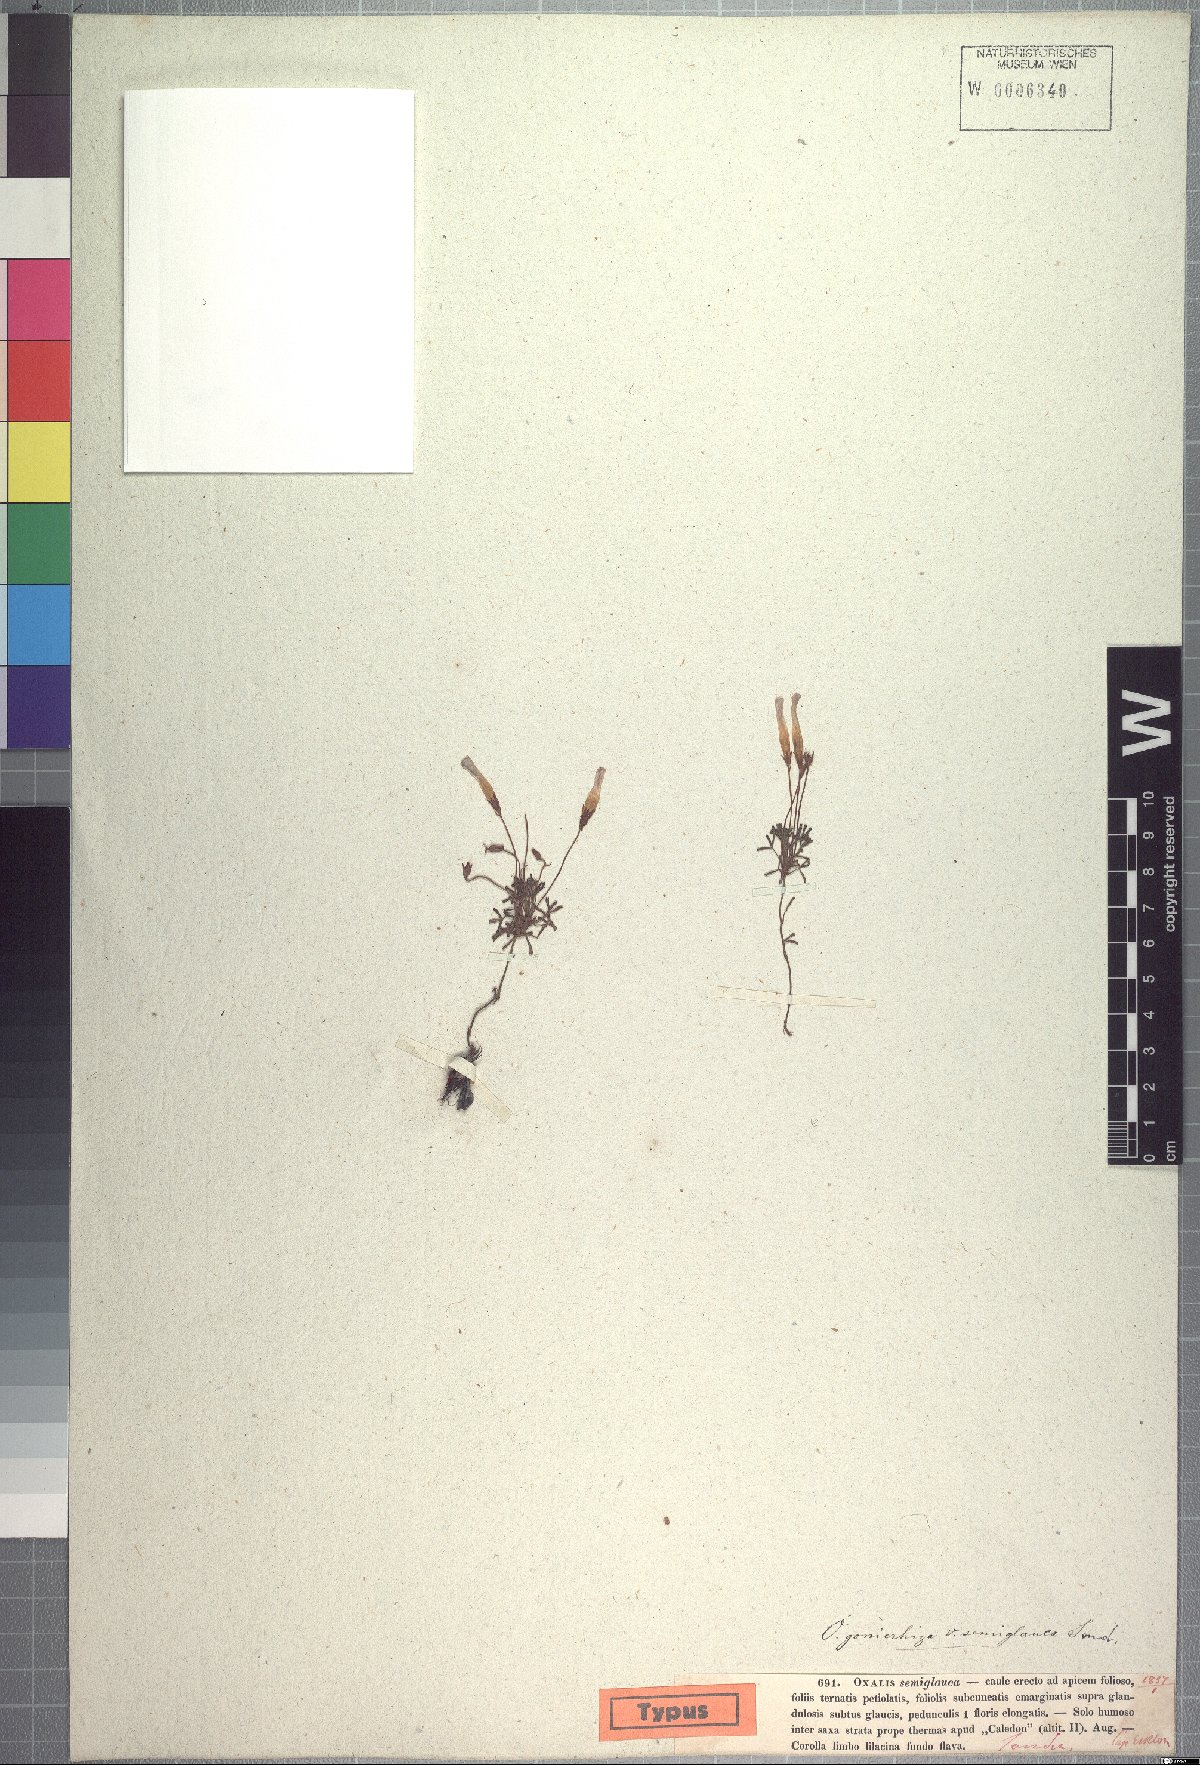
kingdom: Plantae
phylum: Tracheophyta
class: Magnoliopsida
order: Oxalidales
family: Oxalidaceae
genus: Oxalis
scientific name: Oxalis goniorhiza
